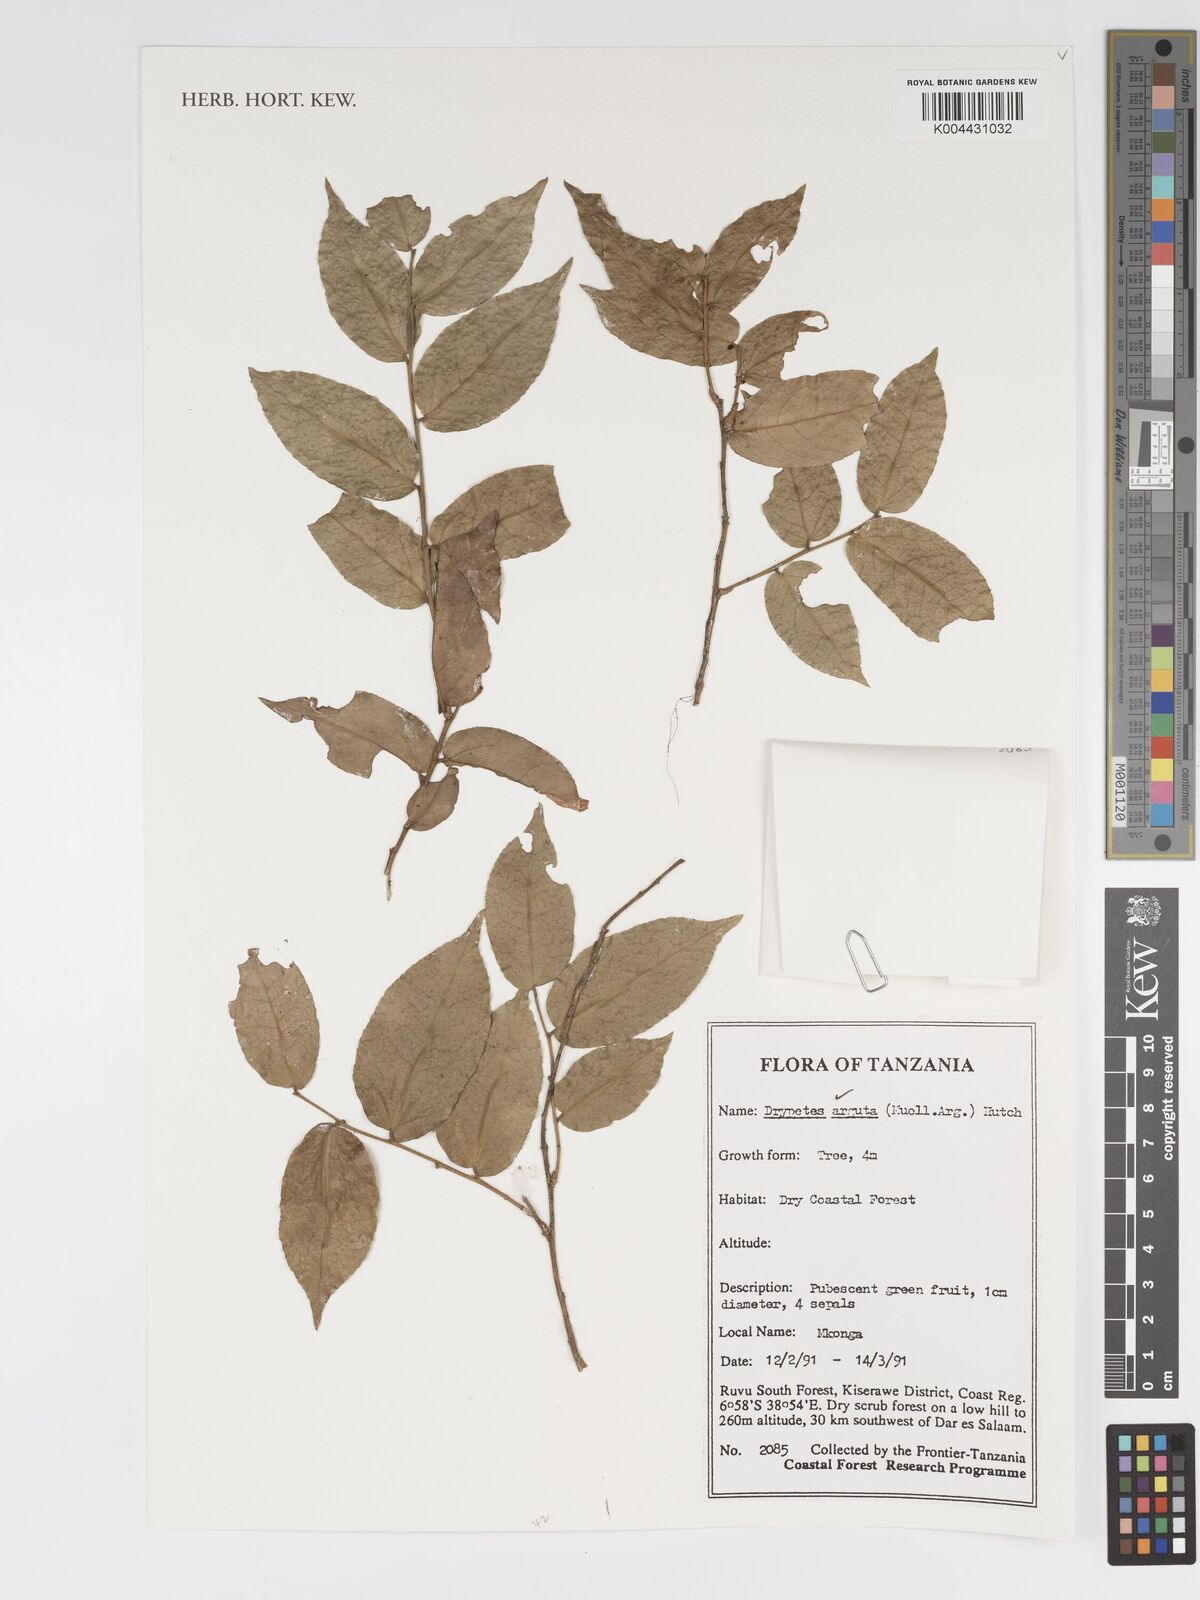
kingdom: Plantae
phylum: Tracheophyta
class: Magnoliopsida
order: Malpighiales
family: Putranjivaceae
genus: Drypetes
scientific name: Drypetes arguta
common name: Water ironplum
